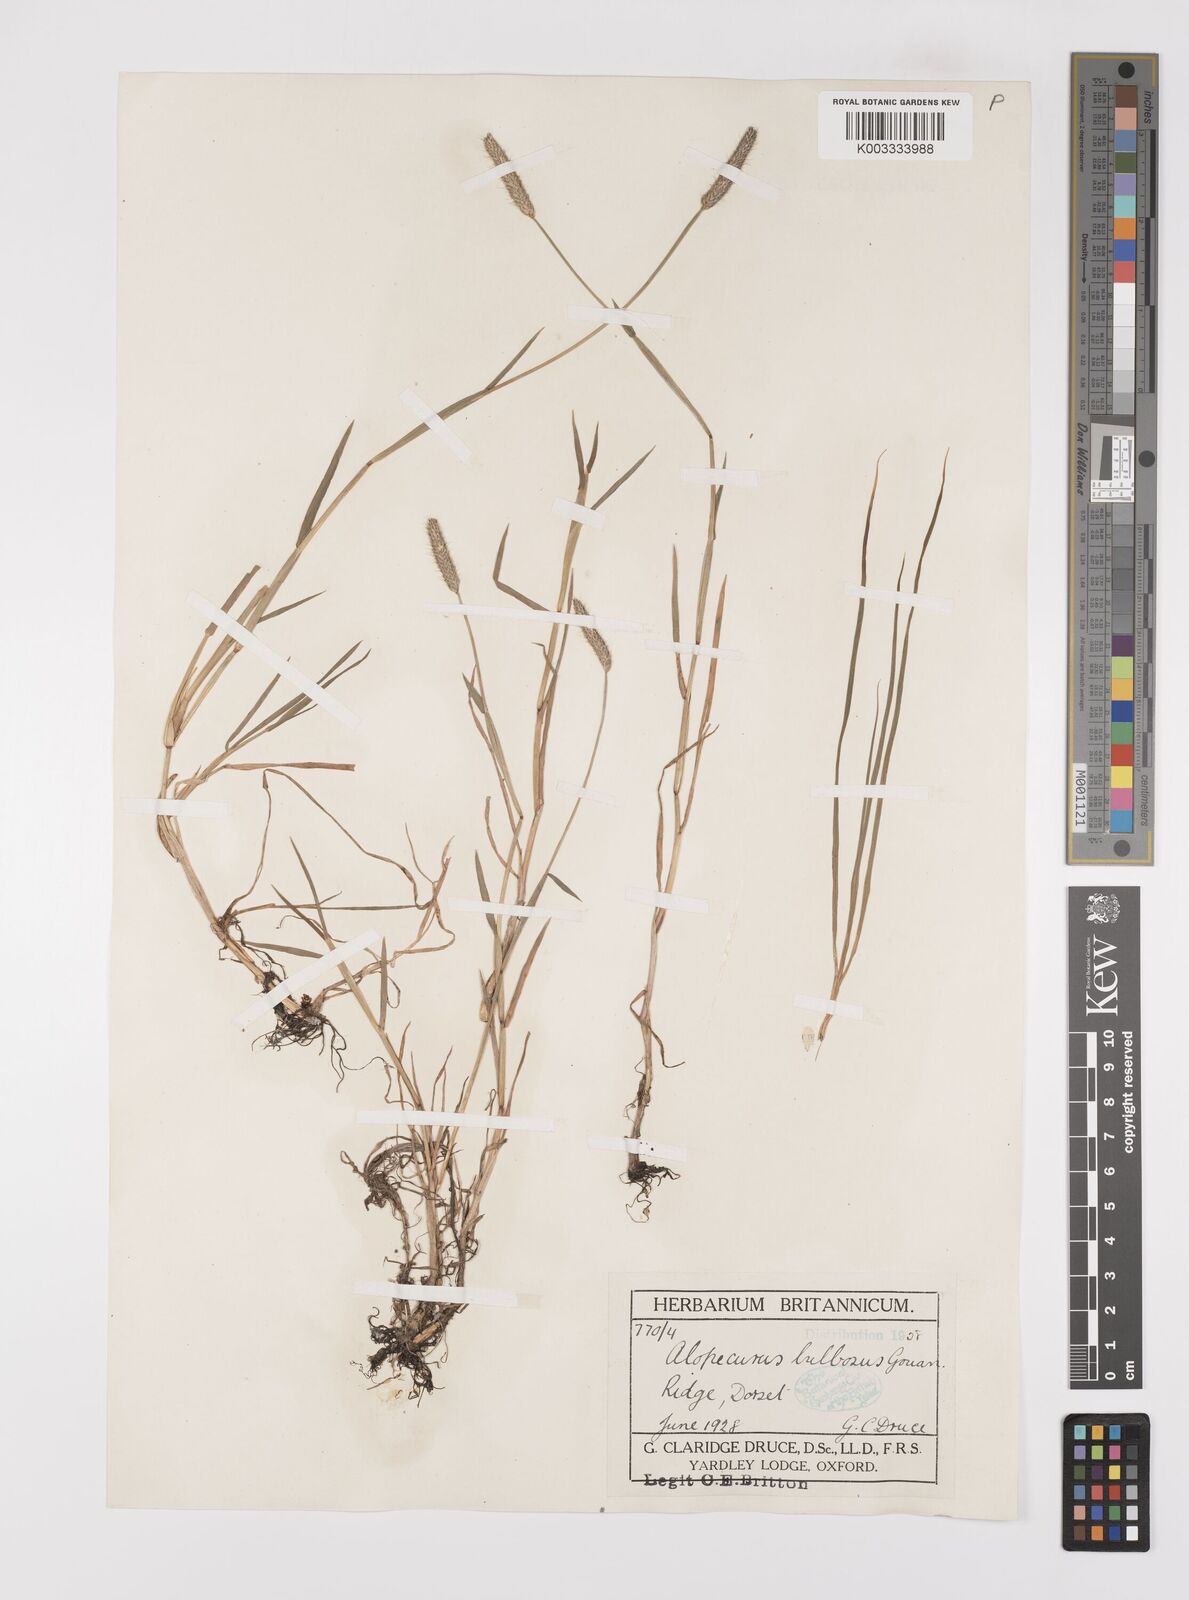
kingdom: Plantae
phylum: Tracheophyta
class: Liliopsida
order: Poales
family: Poaceae
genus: Alopecurus
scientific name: Alopecurus geniculatus
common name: Water foxtail
